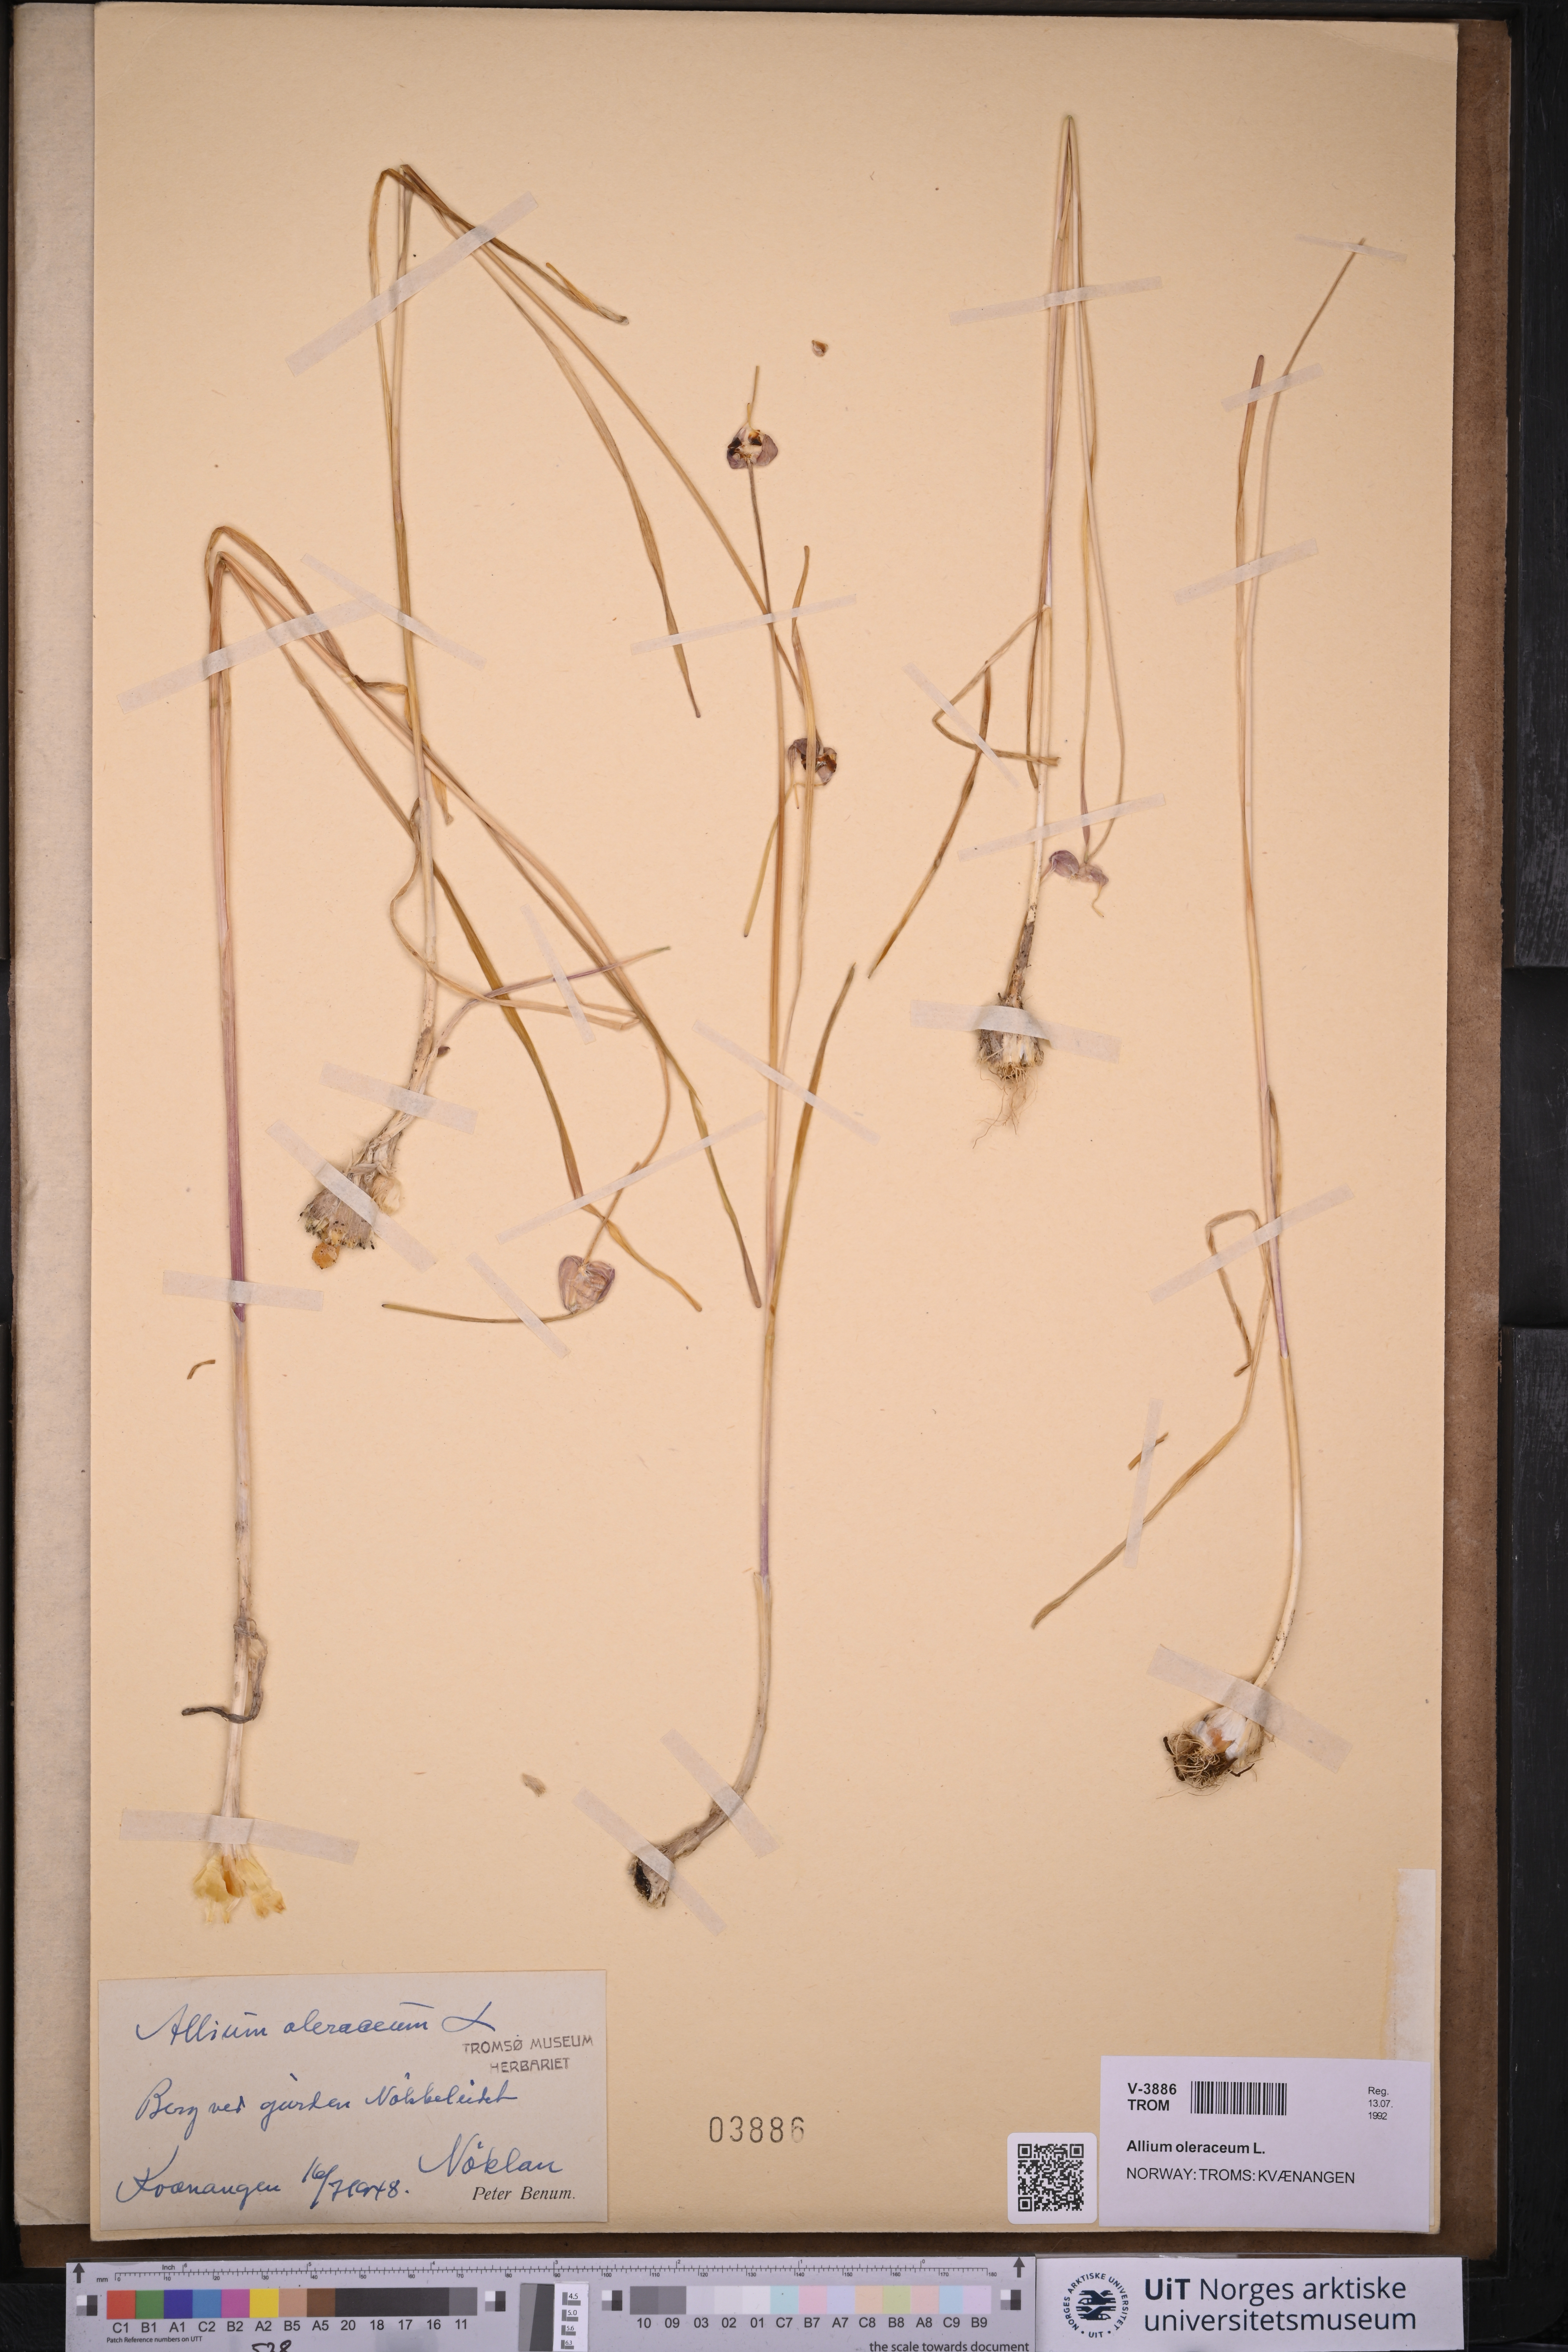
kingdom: Plantae
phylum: Tracheophyta
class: Liliopsida
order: Asparagales
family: Amaryllidaceae
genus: Allium
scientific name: Allium oleraceum
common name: Field garlic
